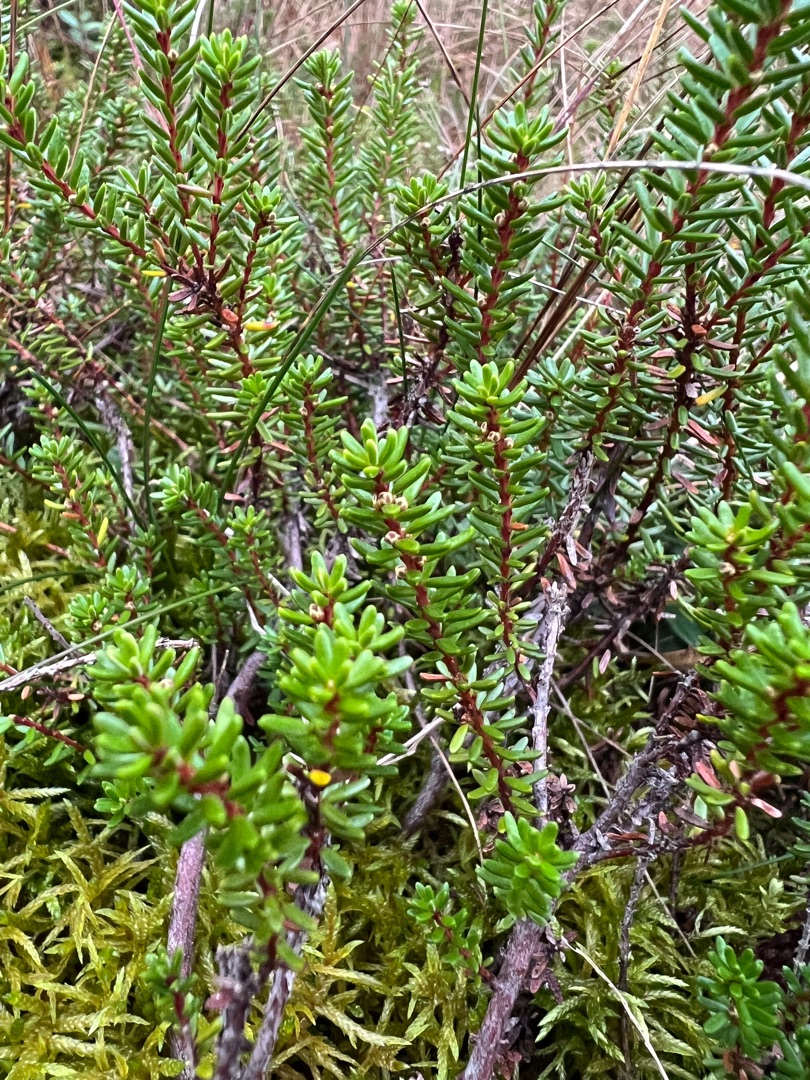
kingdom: Plantae
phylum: Tracheophyta
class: Magnoliopsida
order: Ericales
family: Ericaceae
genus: Empetrum
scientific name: Empetrum nigrum
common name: Revling
